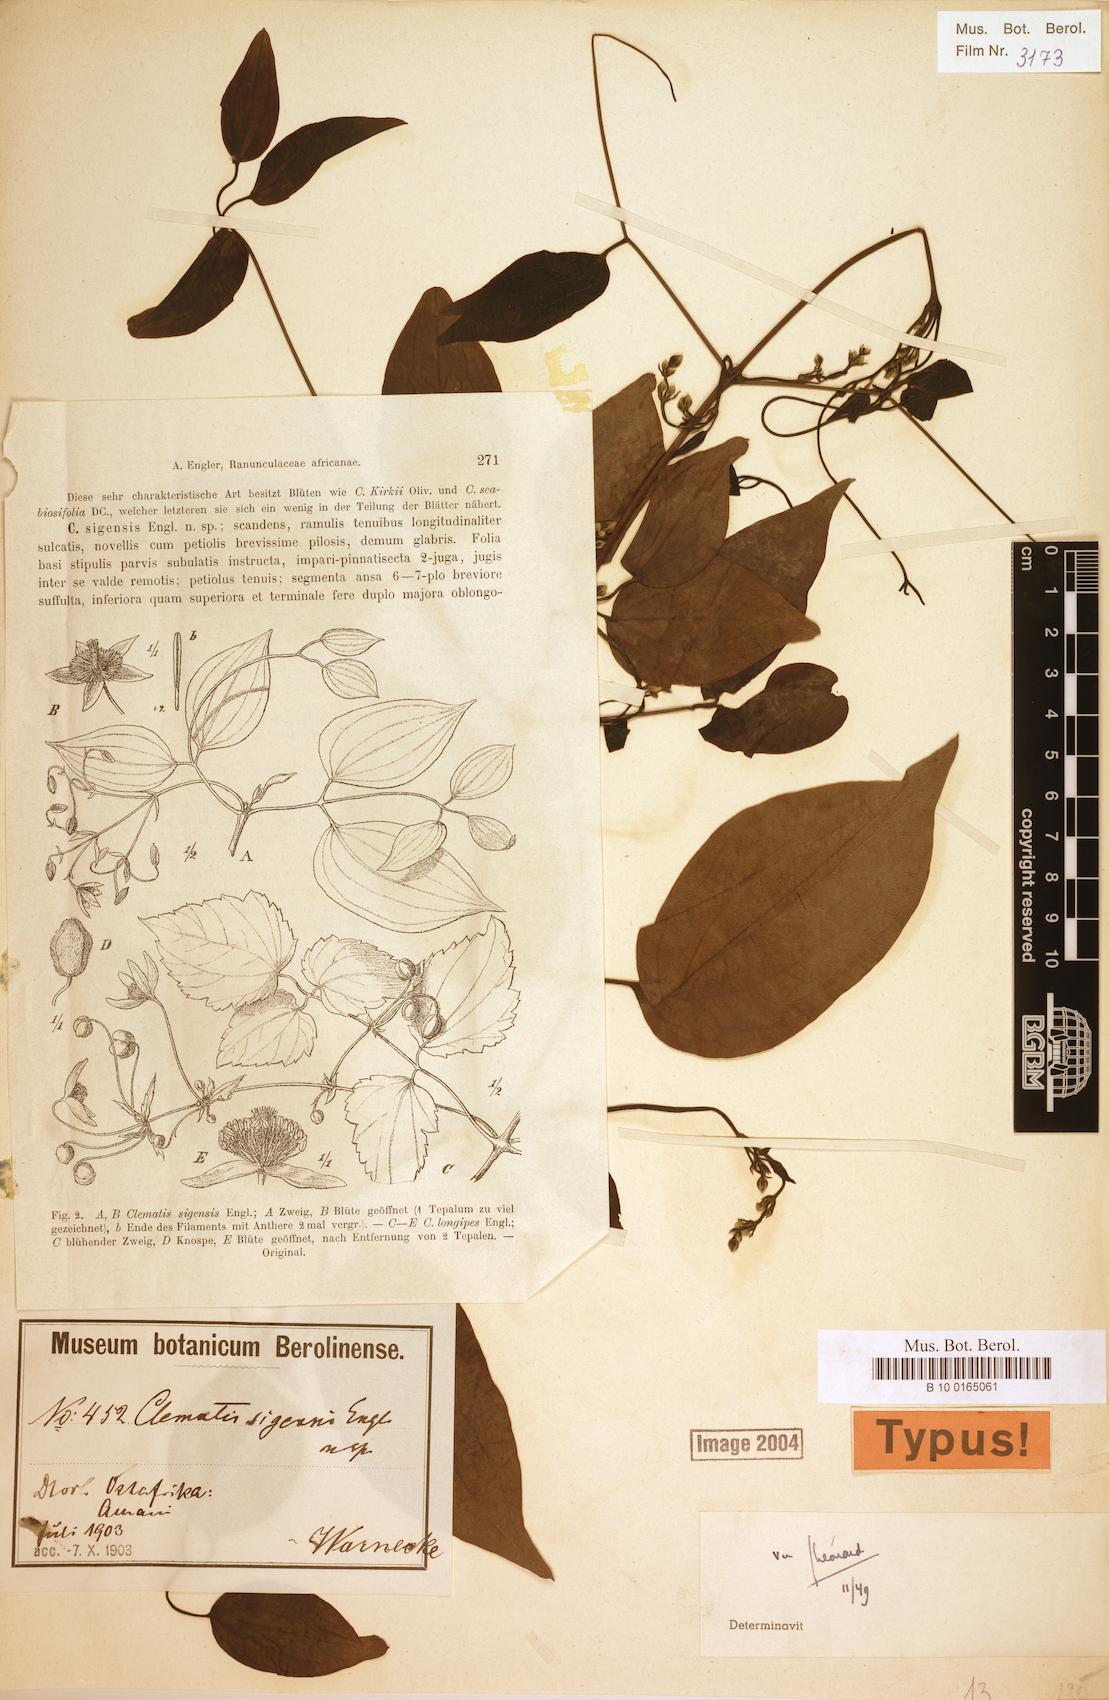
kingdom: Plantae
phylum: Tracheophyta
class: Magnoliopsida
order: Ranunculales
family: Ranunculaceae
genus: Clematis
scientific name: Clematis simensis
